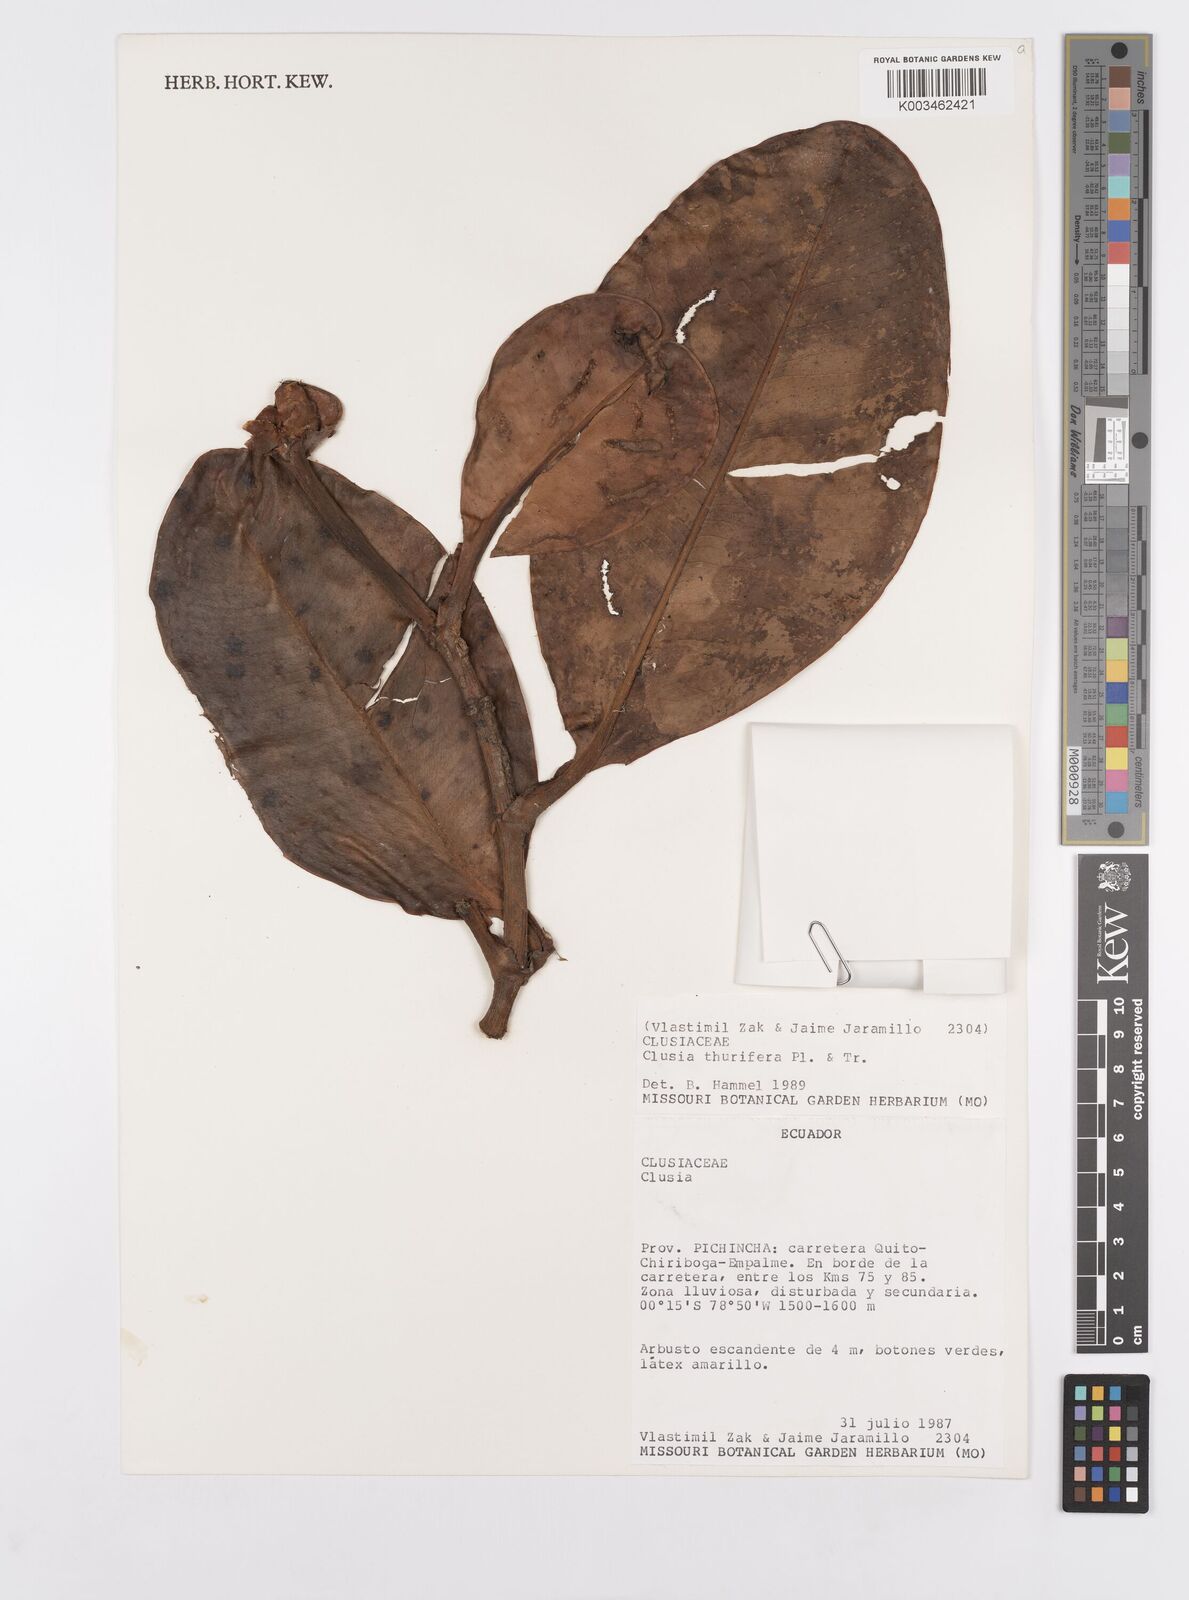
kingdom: Plantae
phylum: Tracheophyta
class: Magnoliopsida
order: Malpighiales
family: Clusiaceae
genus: Clusia
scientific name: Clusia thurifera
